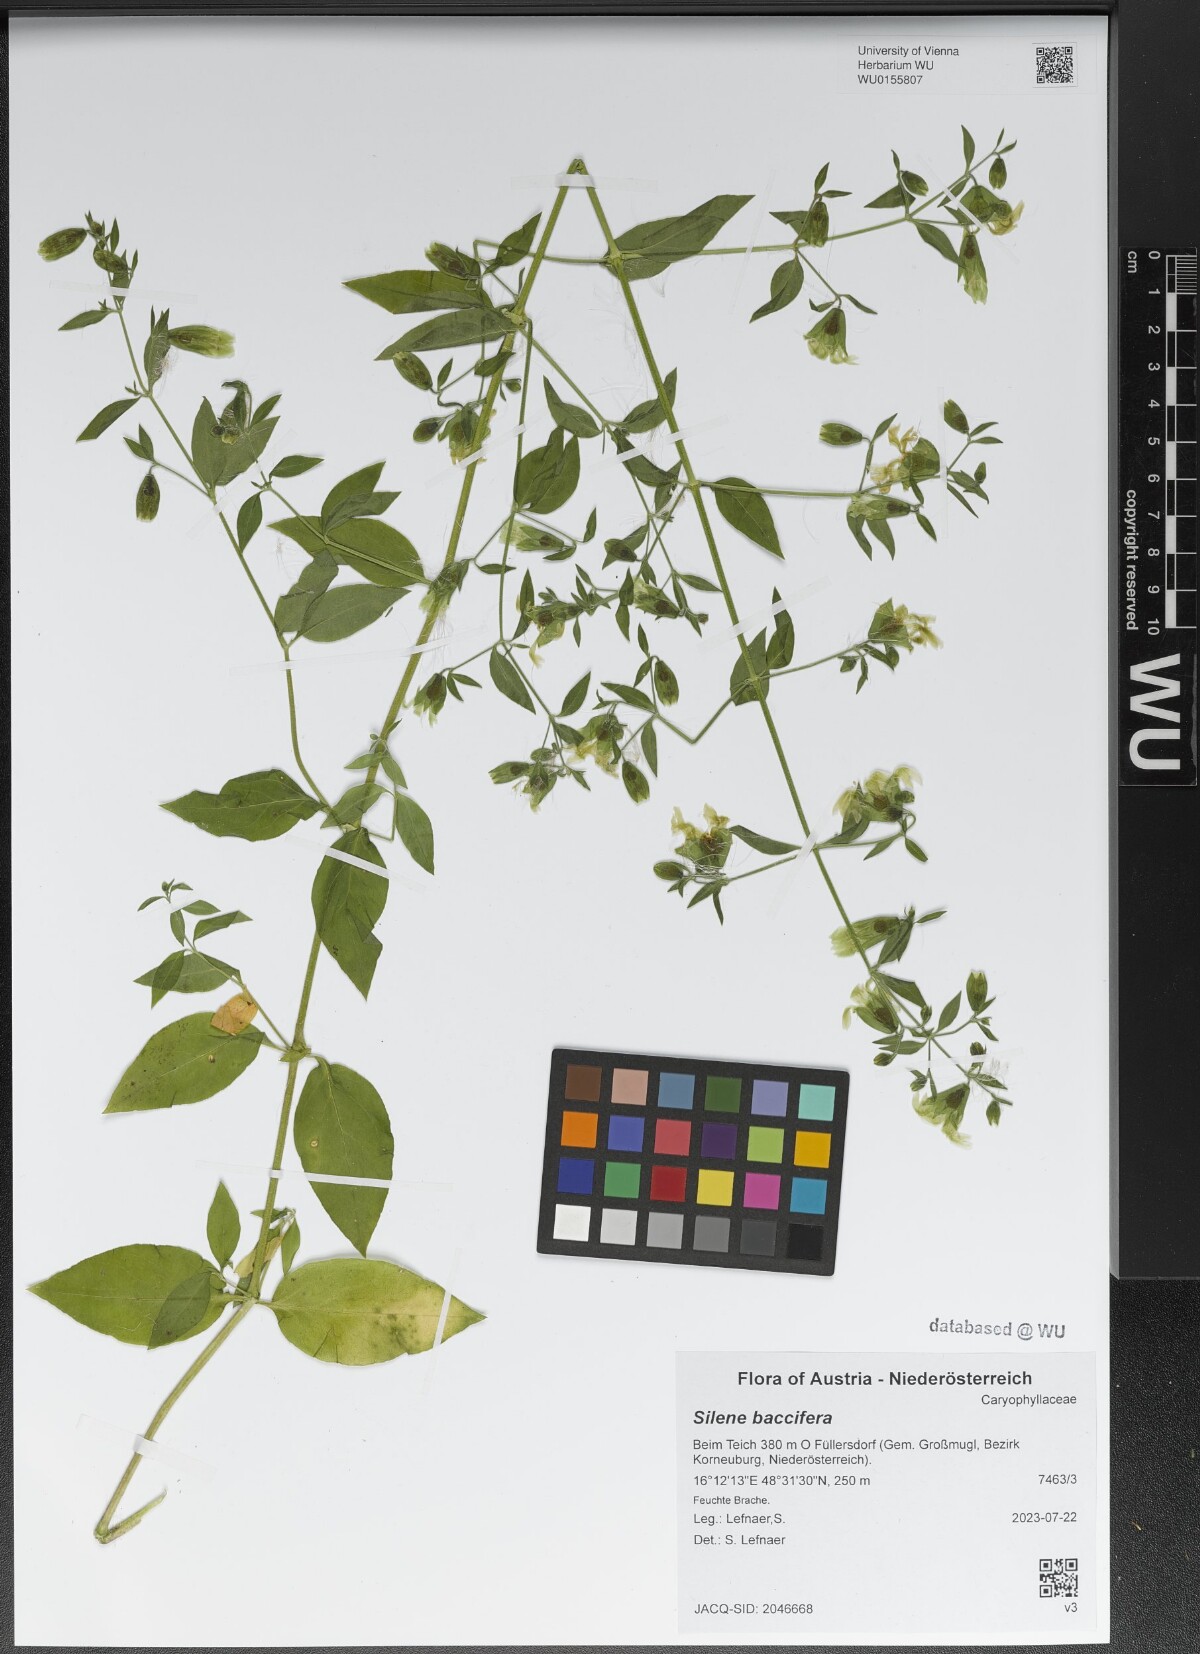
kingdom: Plantae
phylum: Tracheophyta
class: Magnoliopsida
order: Caryophyllales
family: Caryophyllaceae
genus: Silene
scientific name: Silene baccifera
